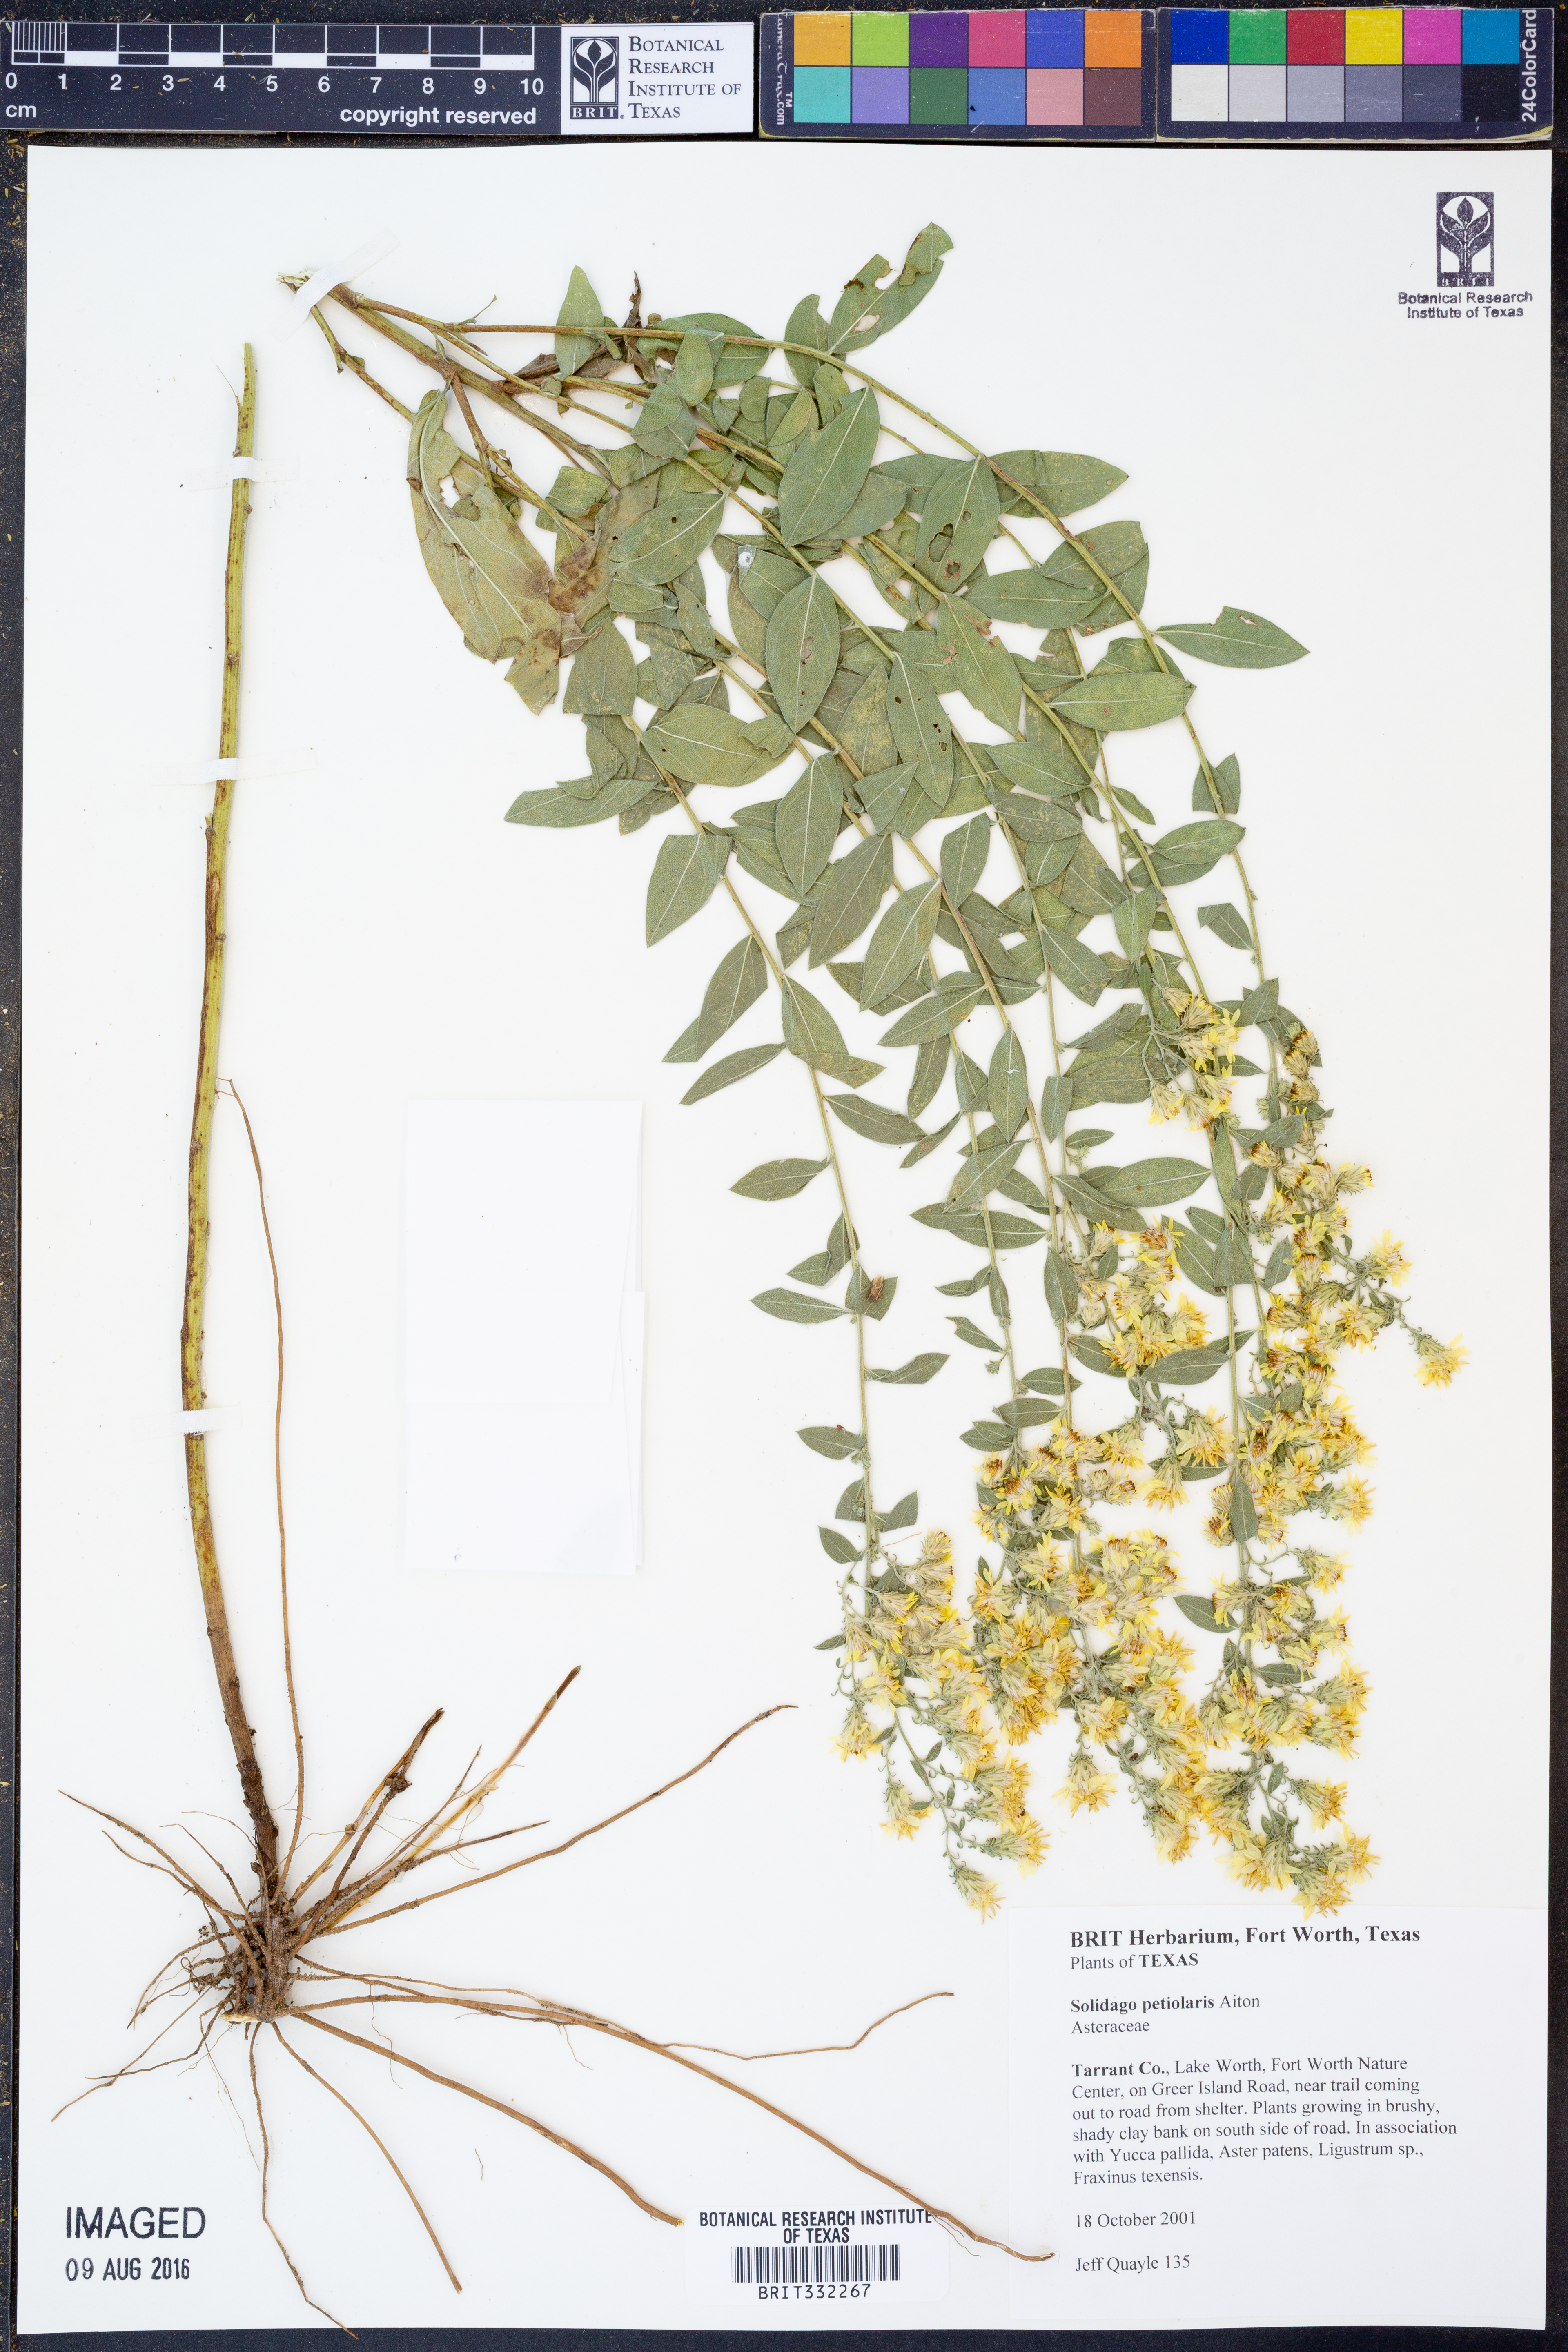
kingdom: Plantae
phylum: Tracheophyta
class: Magnoliopsida
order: Asterales
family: Asteraceae
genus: Solidago
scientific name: Solidago petiolaris
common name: Downy ragged goldenrod
